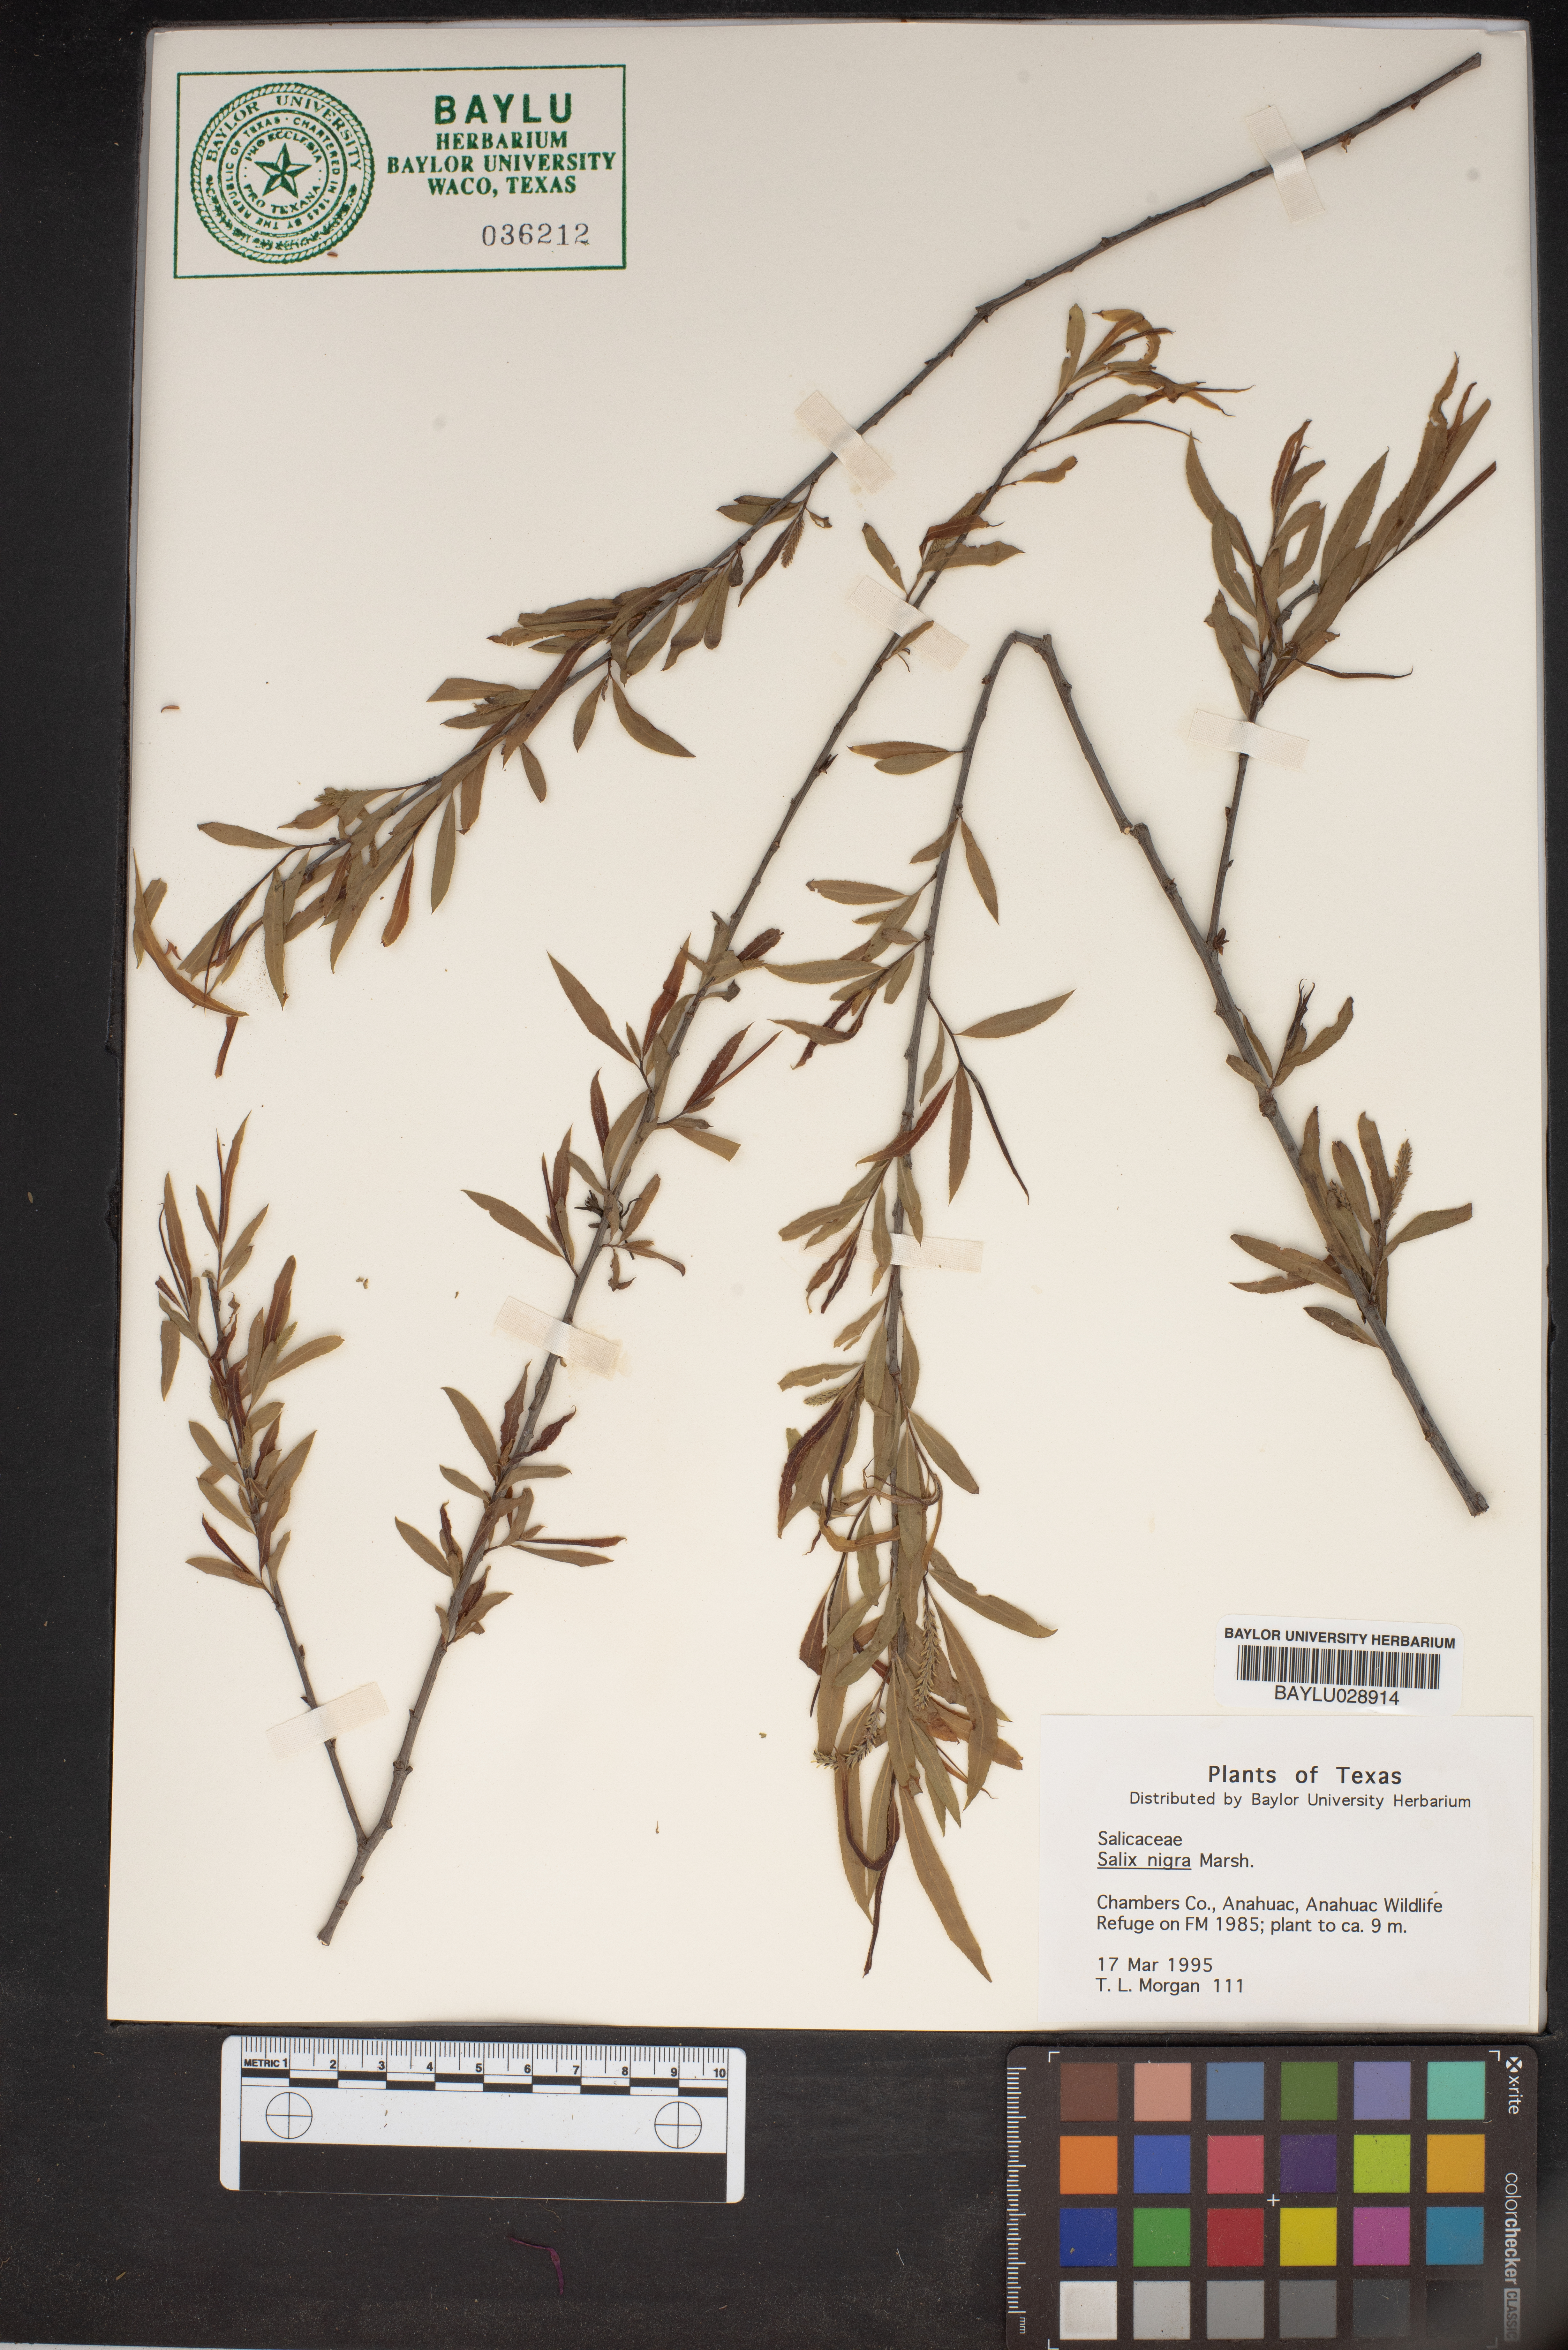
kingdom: Plantae
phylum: Tracheophyta
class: Magnoliopsida
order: Malpighiales
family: Salicaceae
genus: Salix
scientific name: Salix nigra
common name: Black willow
